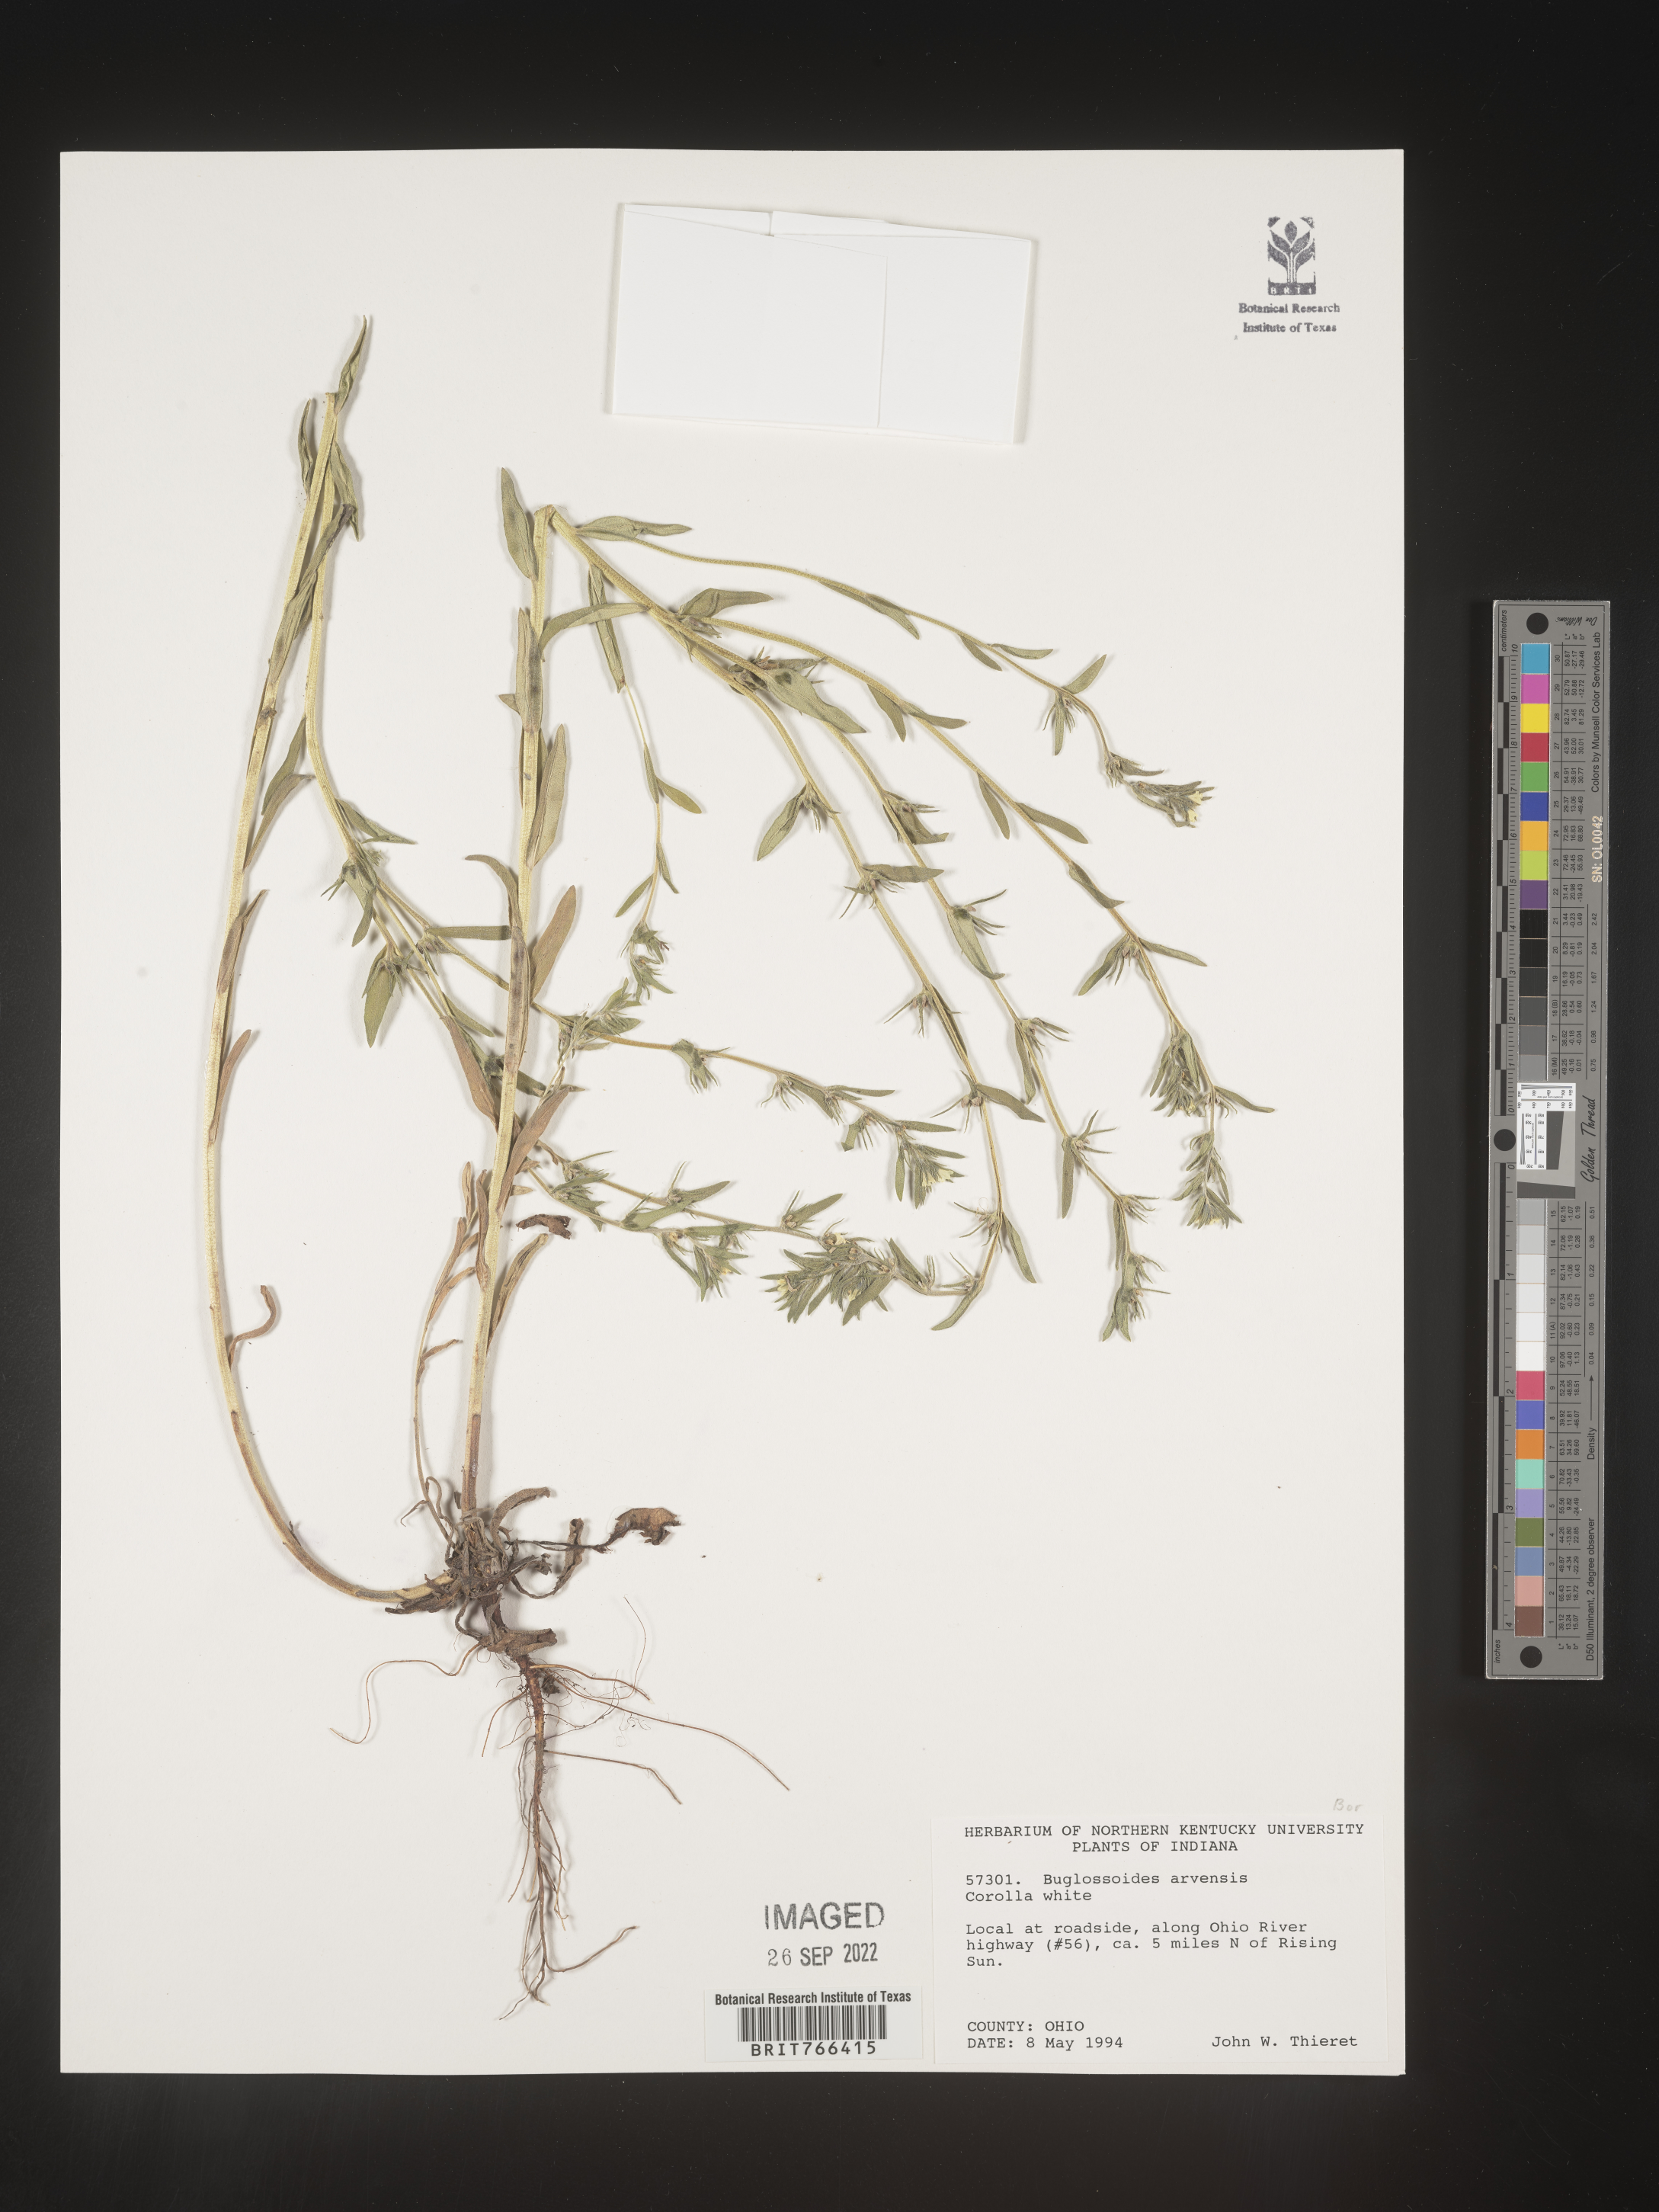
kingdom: Plantae
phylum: Tracheophyta
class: Magnoliopsida
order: Boraginales
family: Boraginaceae
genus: Buglossoides
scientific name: Buglossoides arvensis
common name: Corn gromwell
